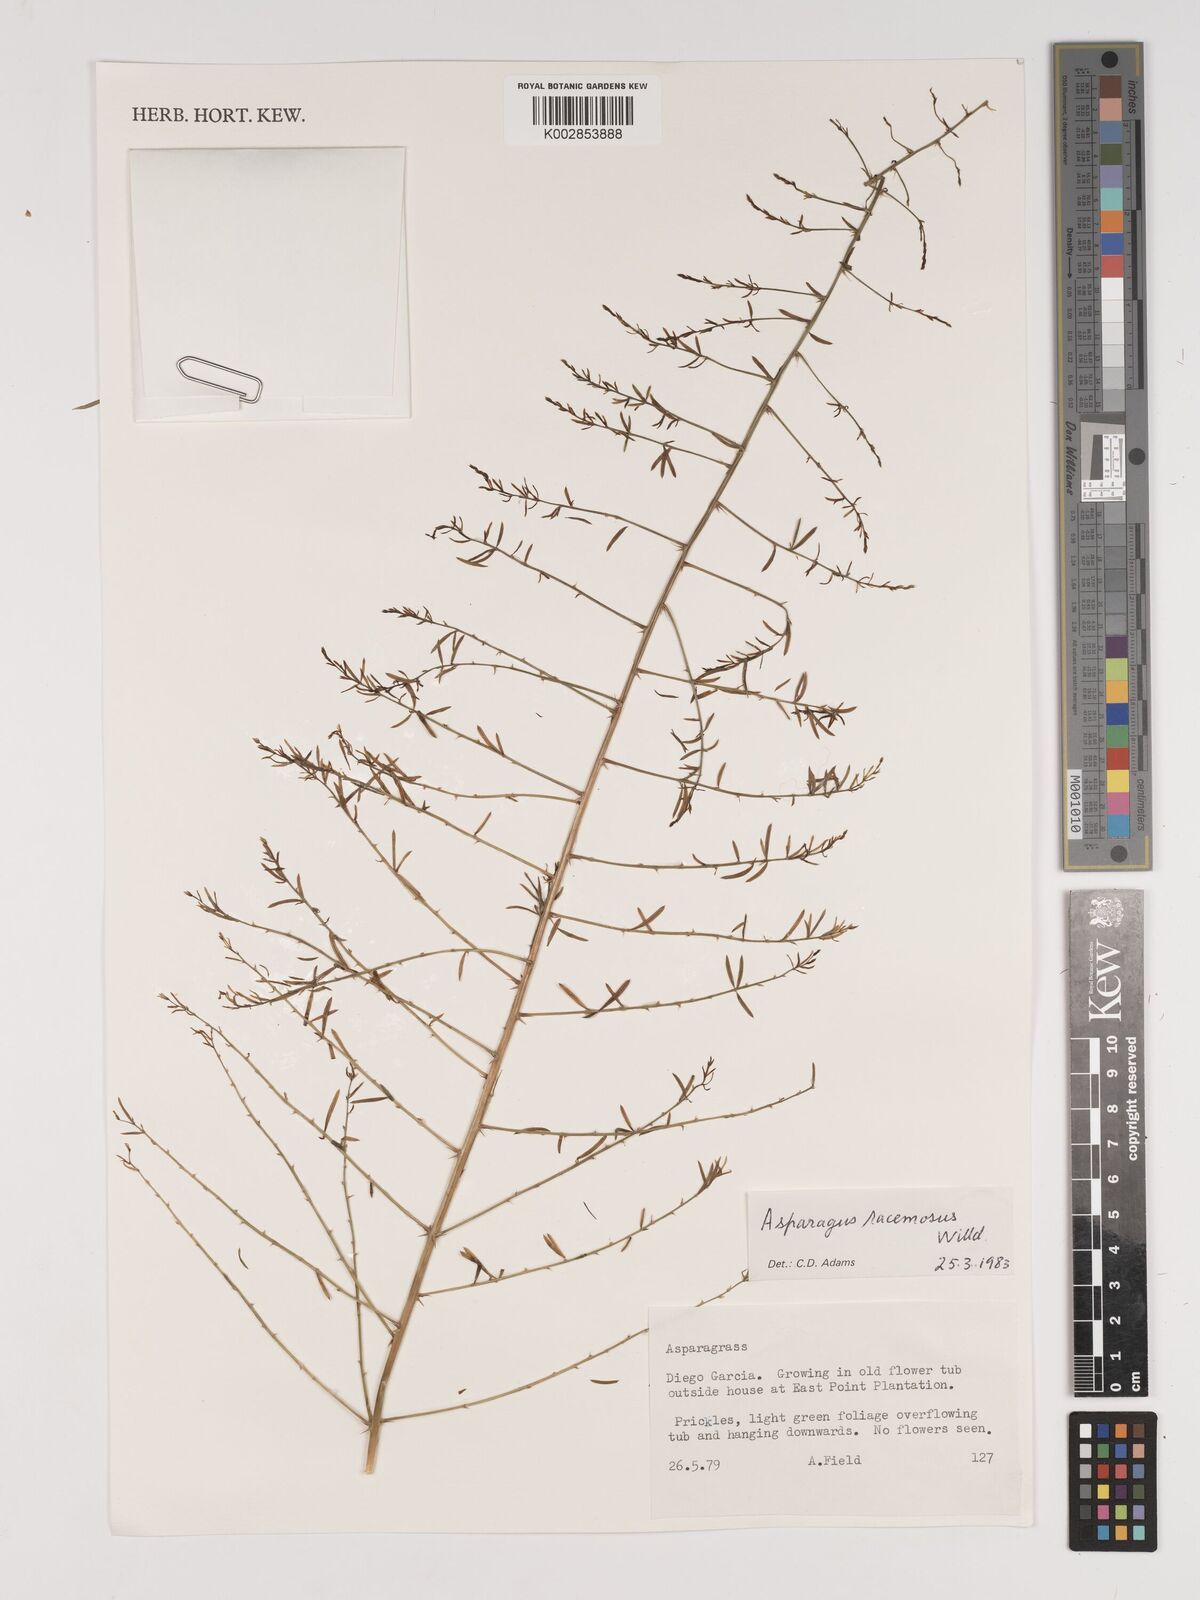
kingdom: Plantae
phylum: Tracheophyta
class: Liliopsida
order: Asparagales
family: Asparagaceae
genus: Asparagus
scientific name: Asparagus racemosus
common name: Asparagus-fern
